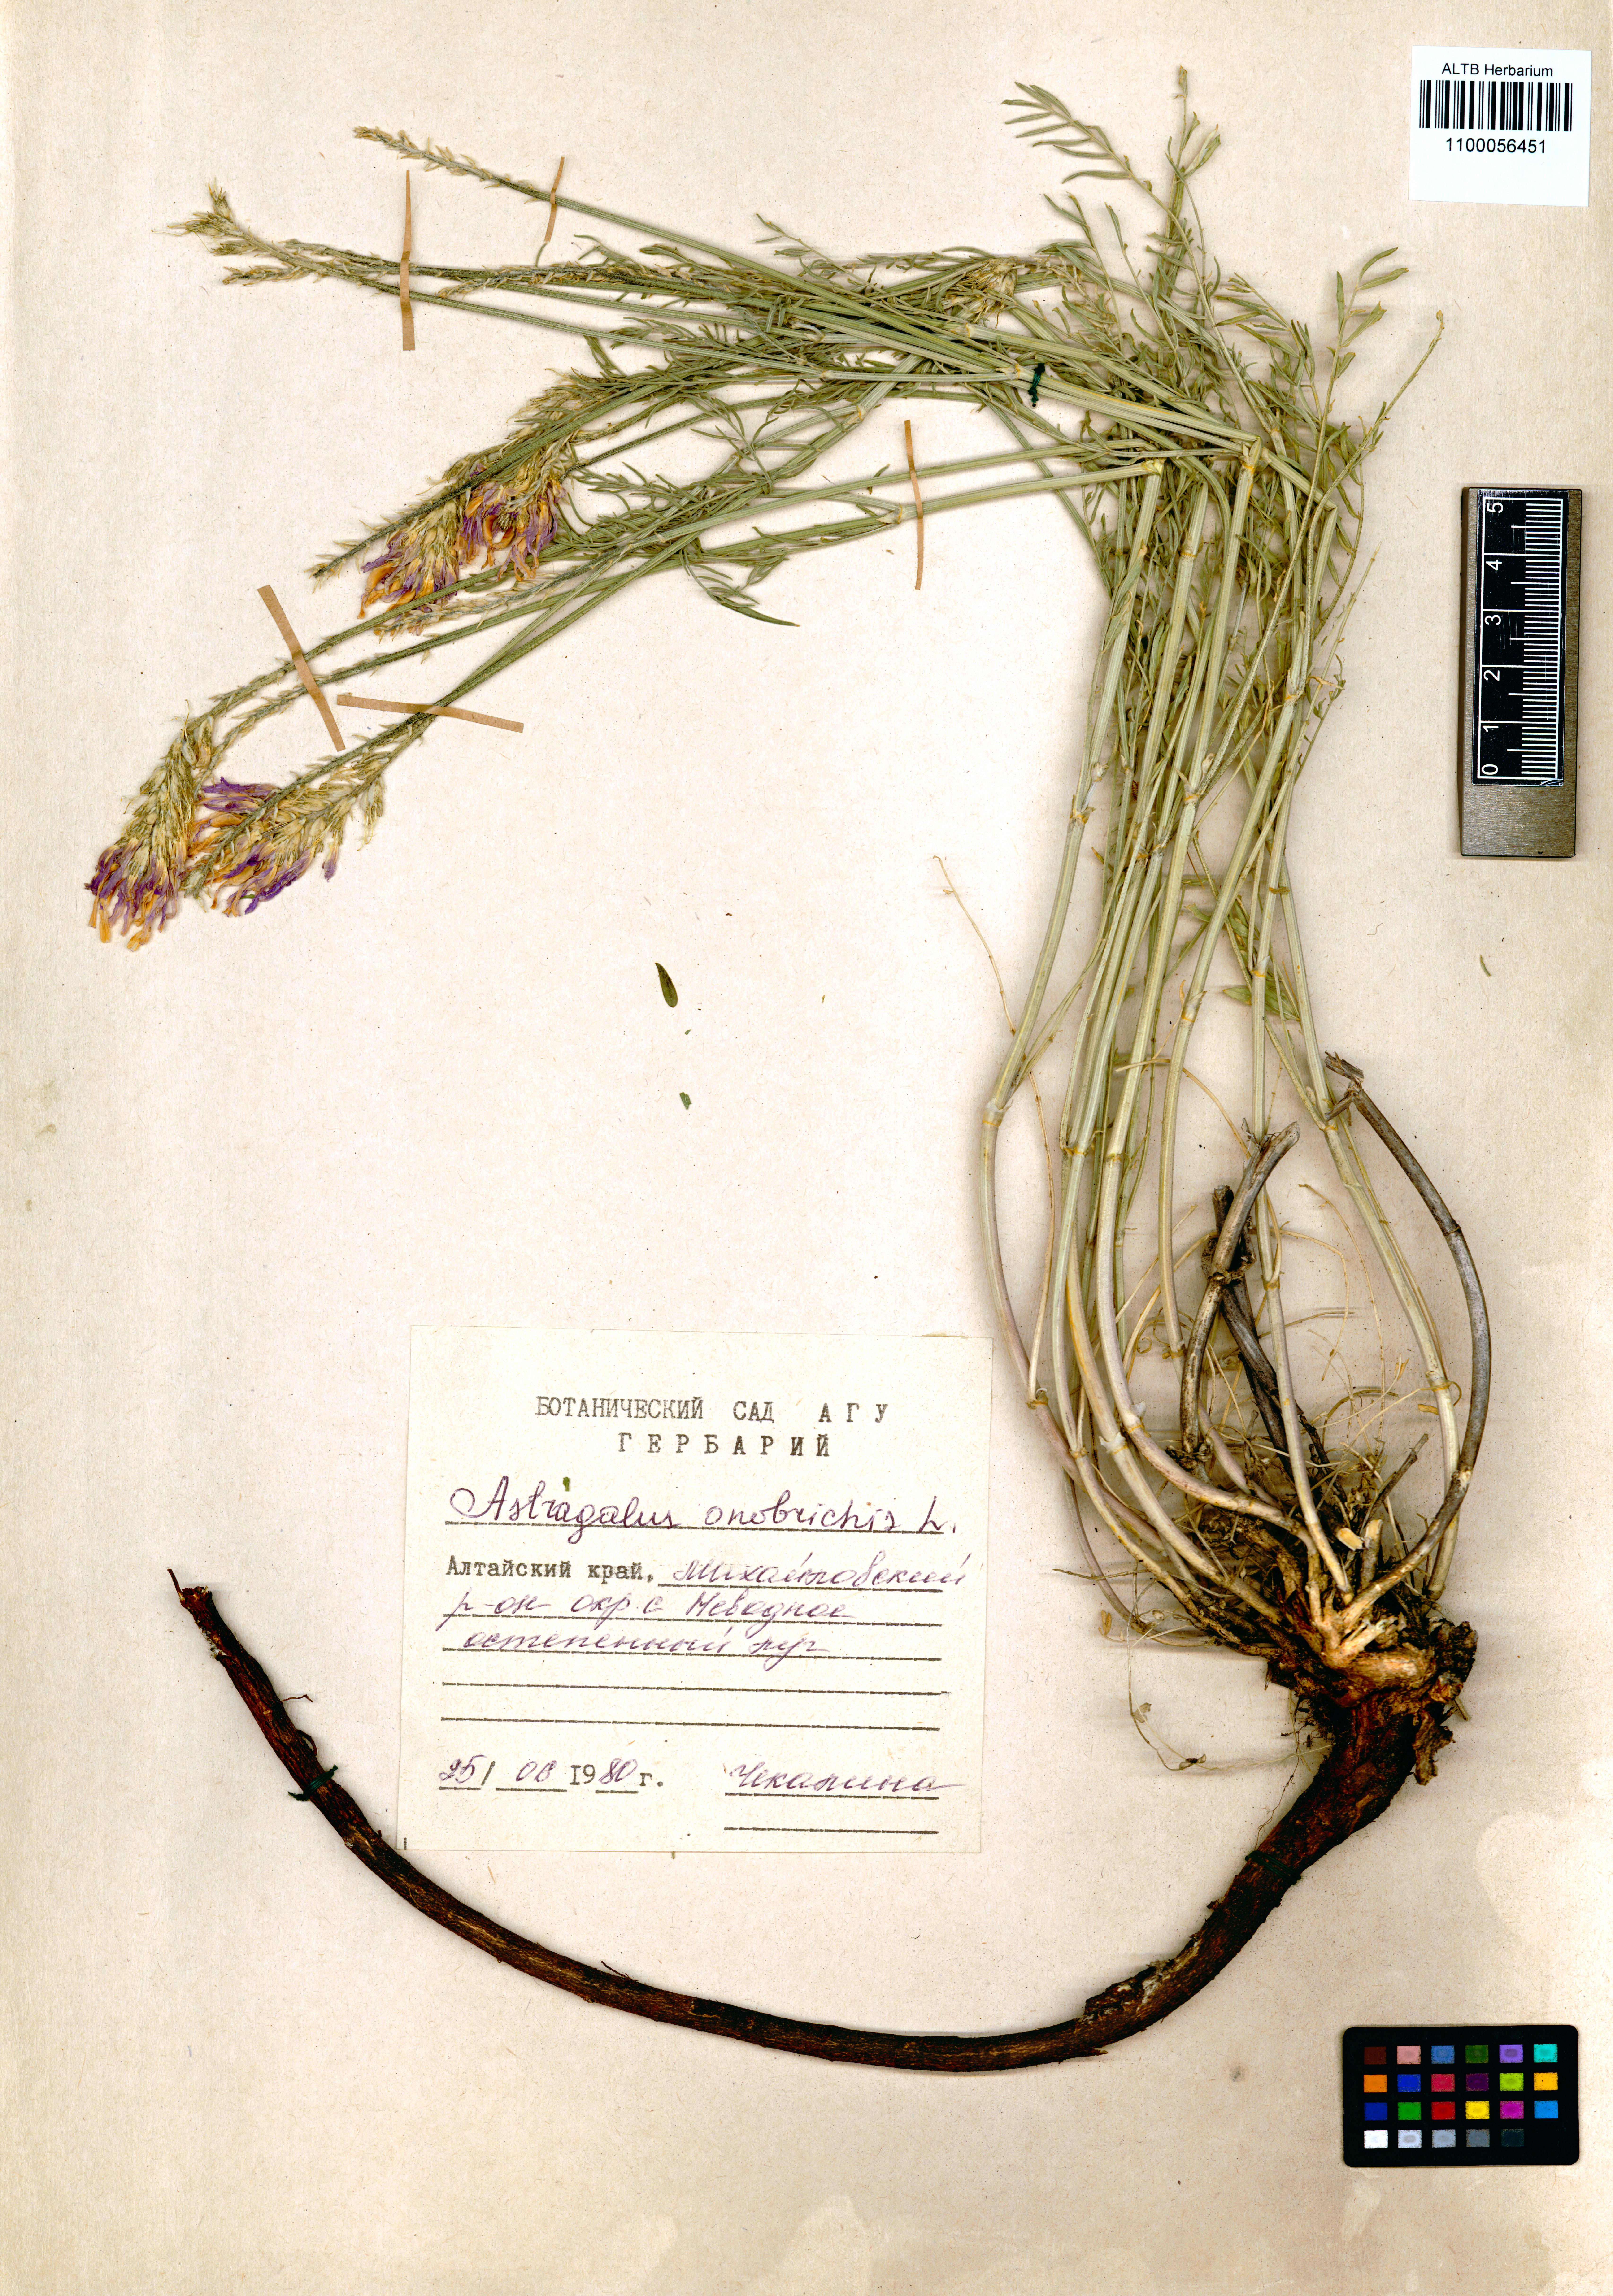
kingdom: Plantae
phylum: Tracheophyta
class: Magnoliopsida
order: Fabales
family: Fabaceae
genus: Astragalus
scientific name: Astragalus onobrychis
